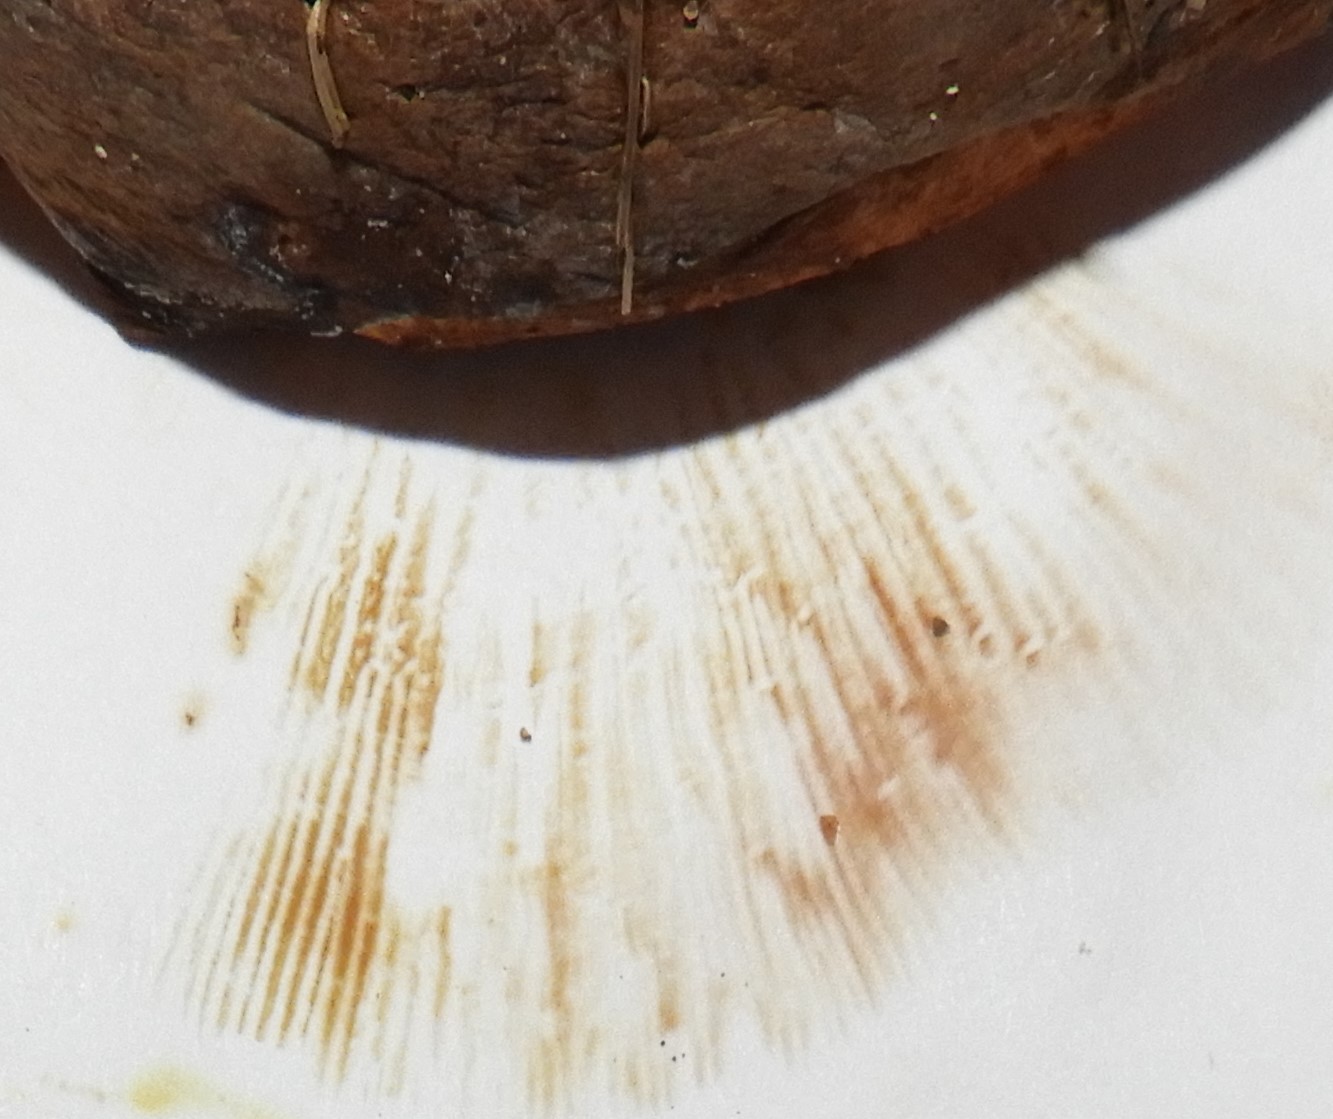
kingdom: Fungi
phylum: Basidiomycota
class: Agaricomycetes
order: Boletales
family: Paxillaceae
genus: Paxillus
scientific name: Paxillus obscurisporus
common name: mahognisporet netbladhat
